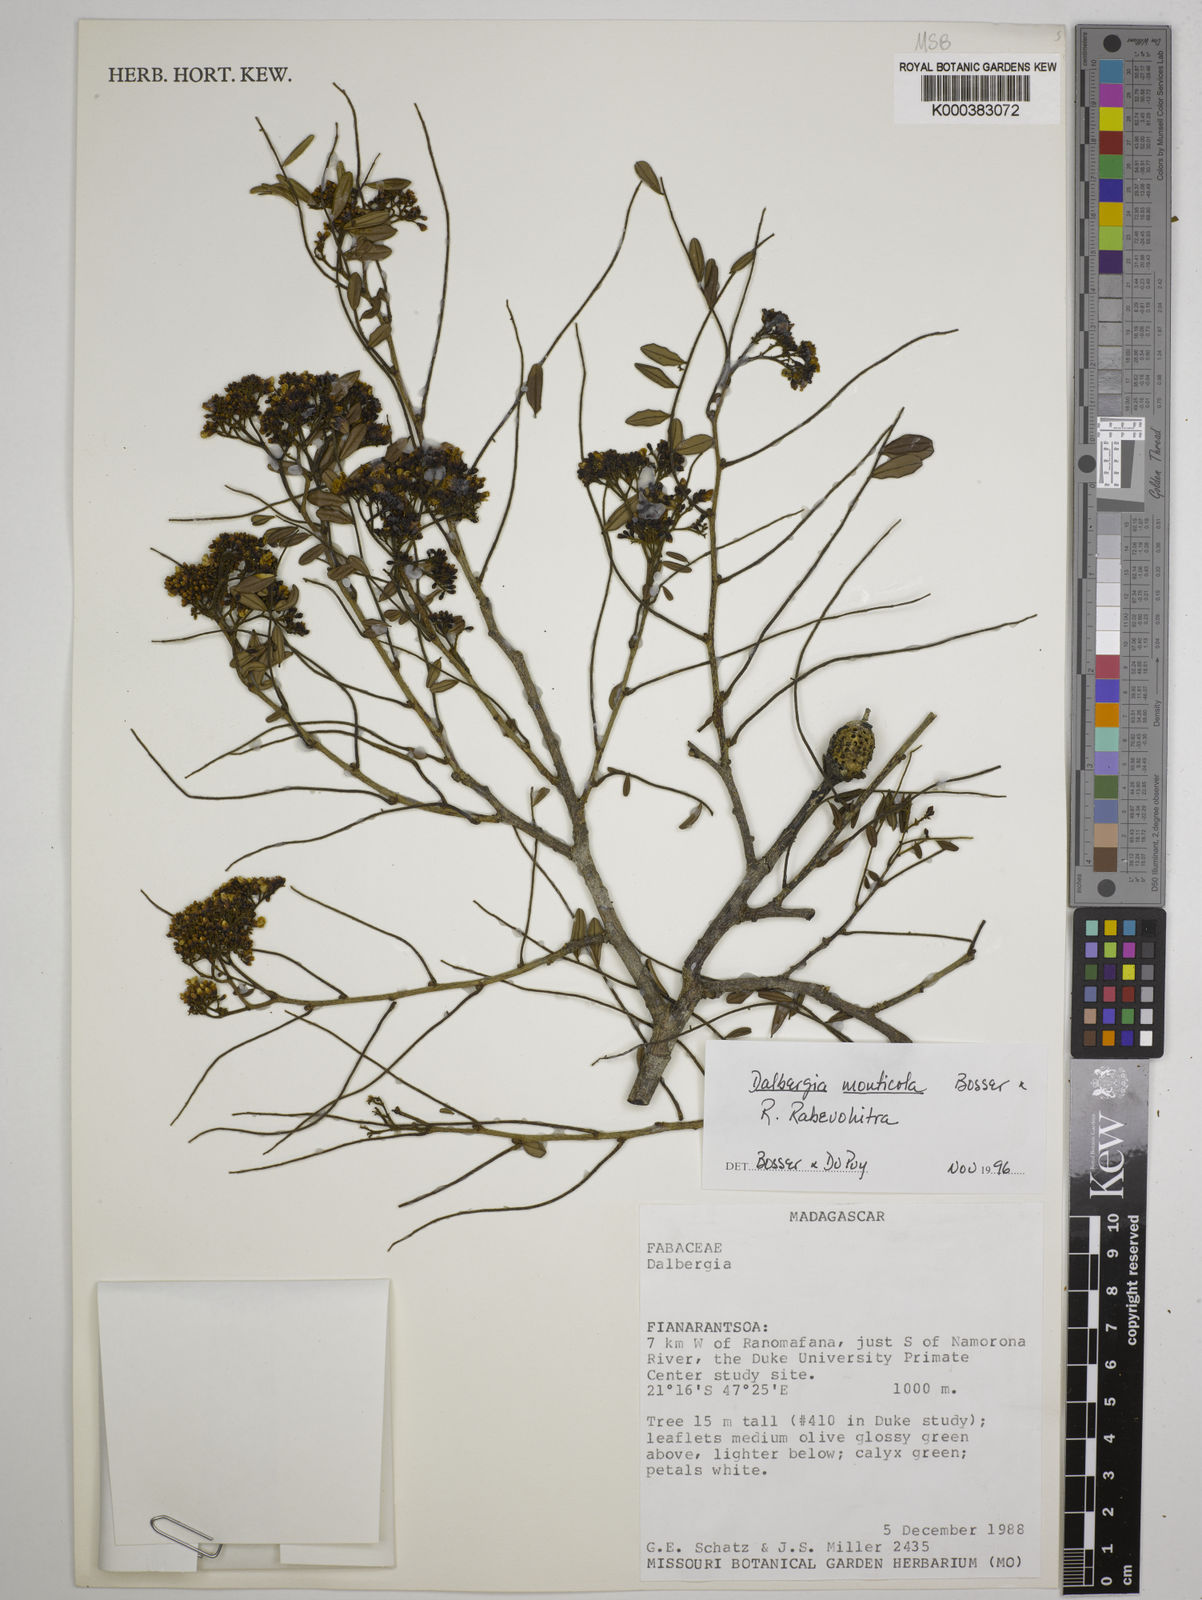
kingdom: Plantae
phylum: Tracheophyta
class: Magnoliopsida
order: Fabales
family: Fabaceae
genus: Dalbergia
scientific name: Dalbergia monticola
